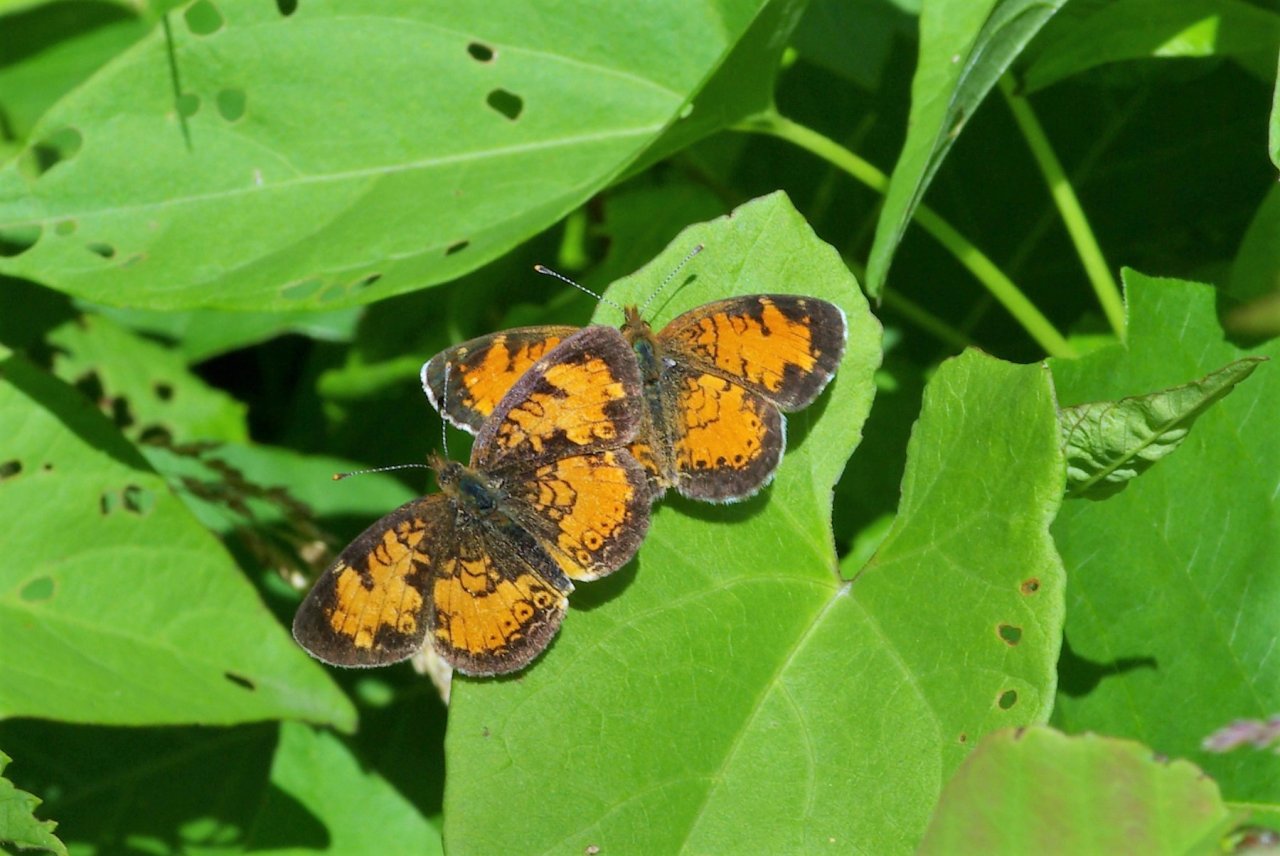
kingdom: Animalia
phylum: Arthropoda
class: Insecta
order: Lepidoptera
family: Nymphalidae
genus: Phyciodes
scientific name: Phyciodes tharos
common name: Northern Crescent
